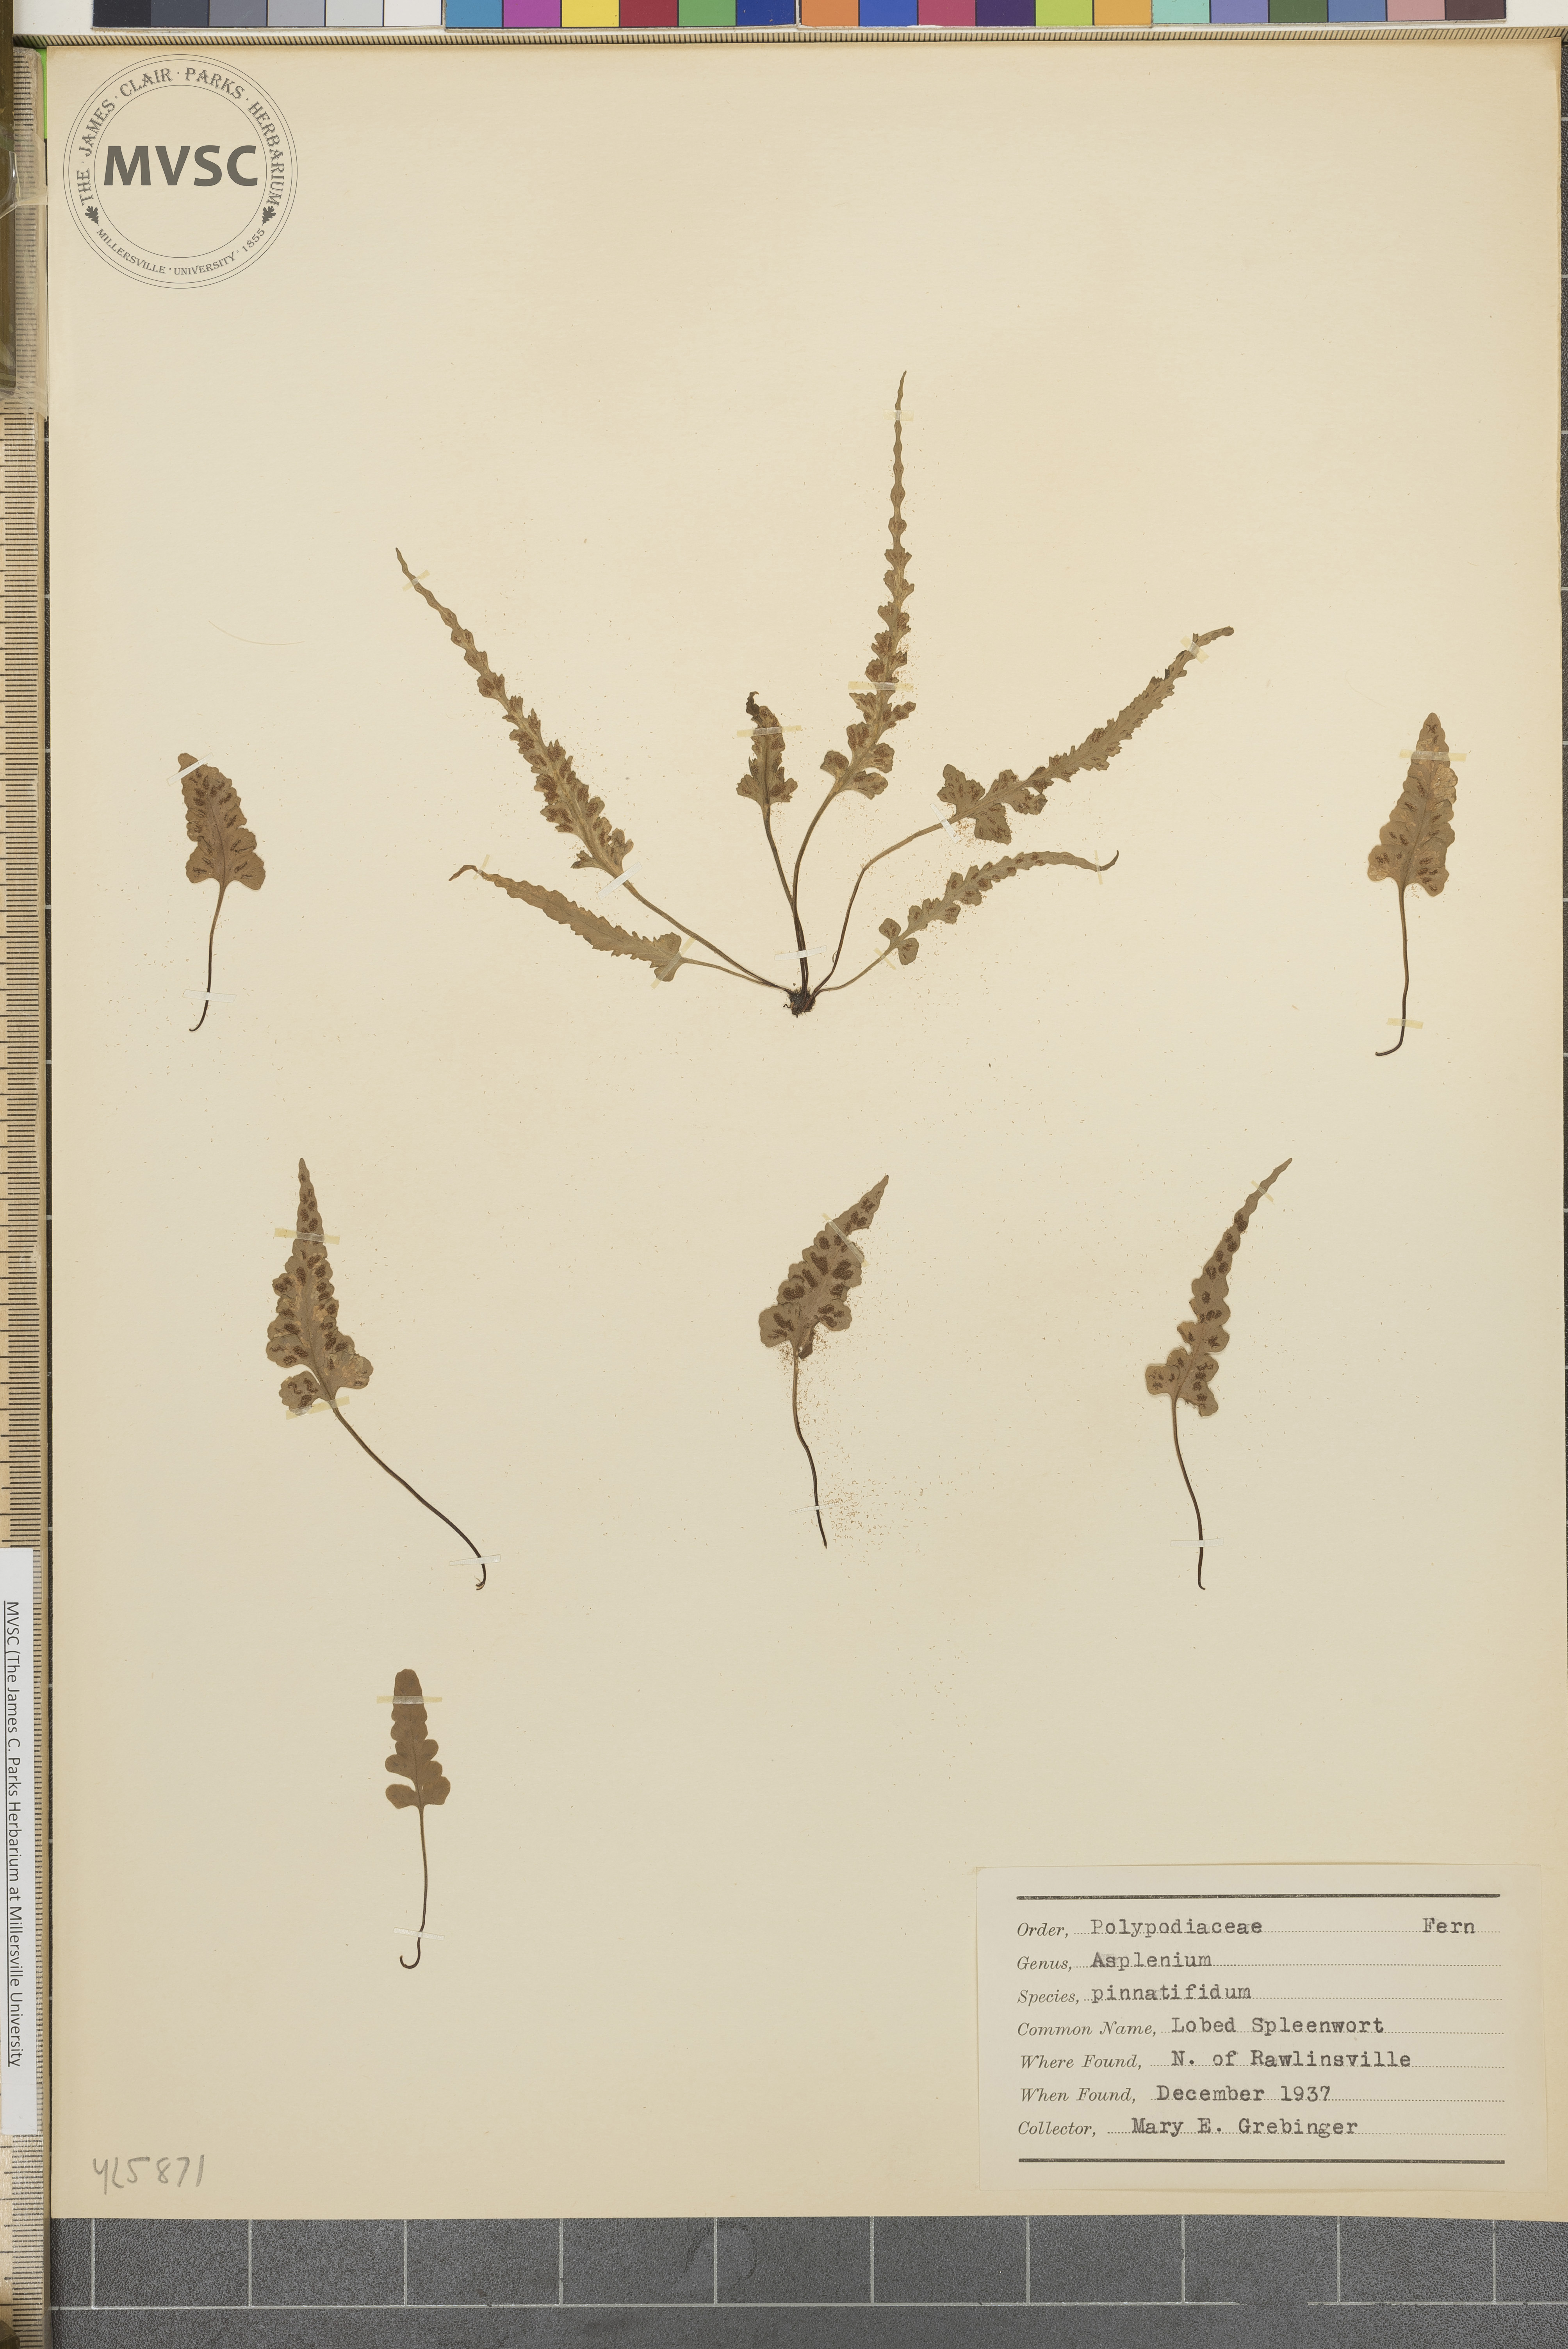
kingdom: Plantae
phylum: Tracheophyta
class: Polypodiopsida
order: Polypodiales
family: Aspleniaceae
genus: Asplenium
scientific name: Asplenium pinnatifidum
